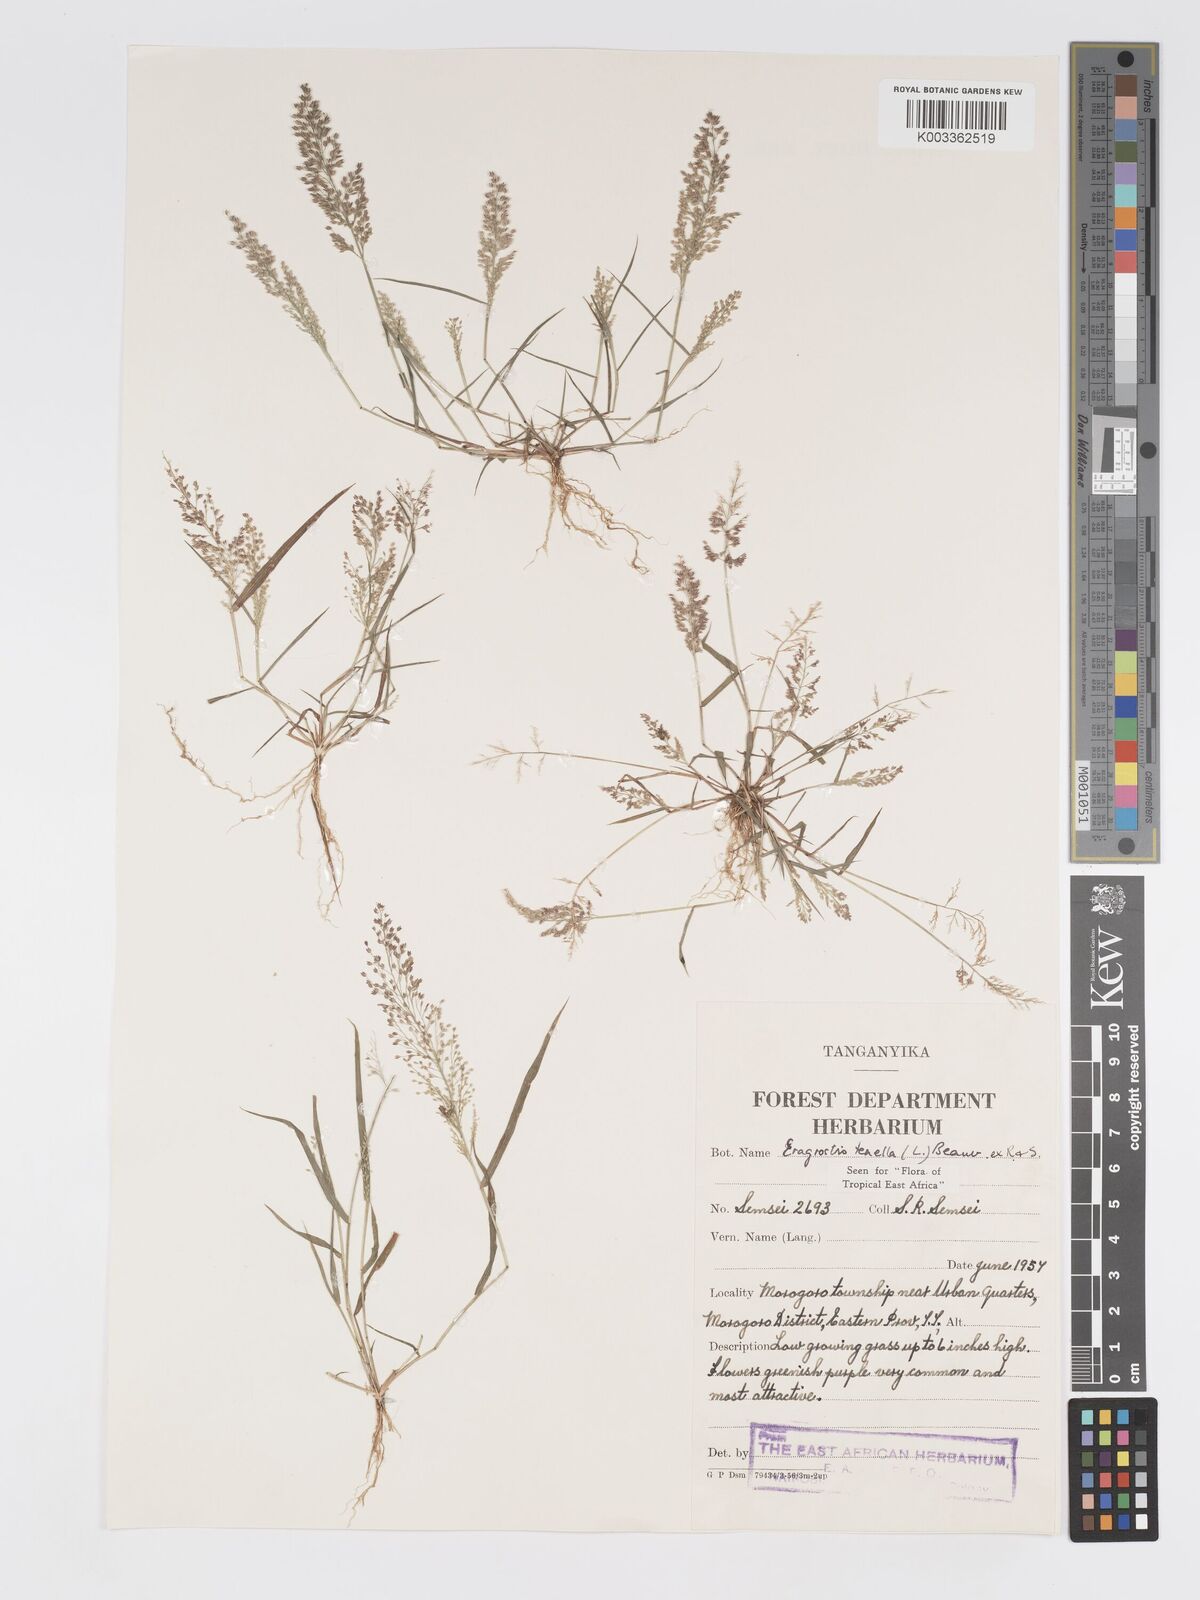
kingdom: Plantae
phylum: Tracheophyta
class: Liliopsida
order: Poales
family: Poaceae
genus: Eragrostis
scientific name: Eragrostis tenella
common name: Japanese lovegrass
